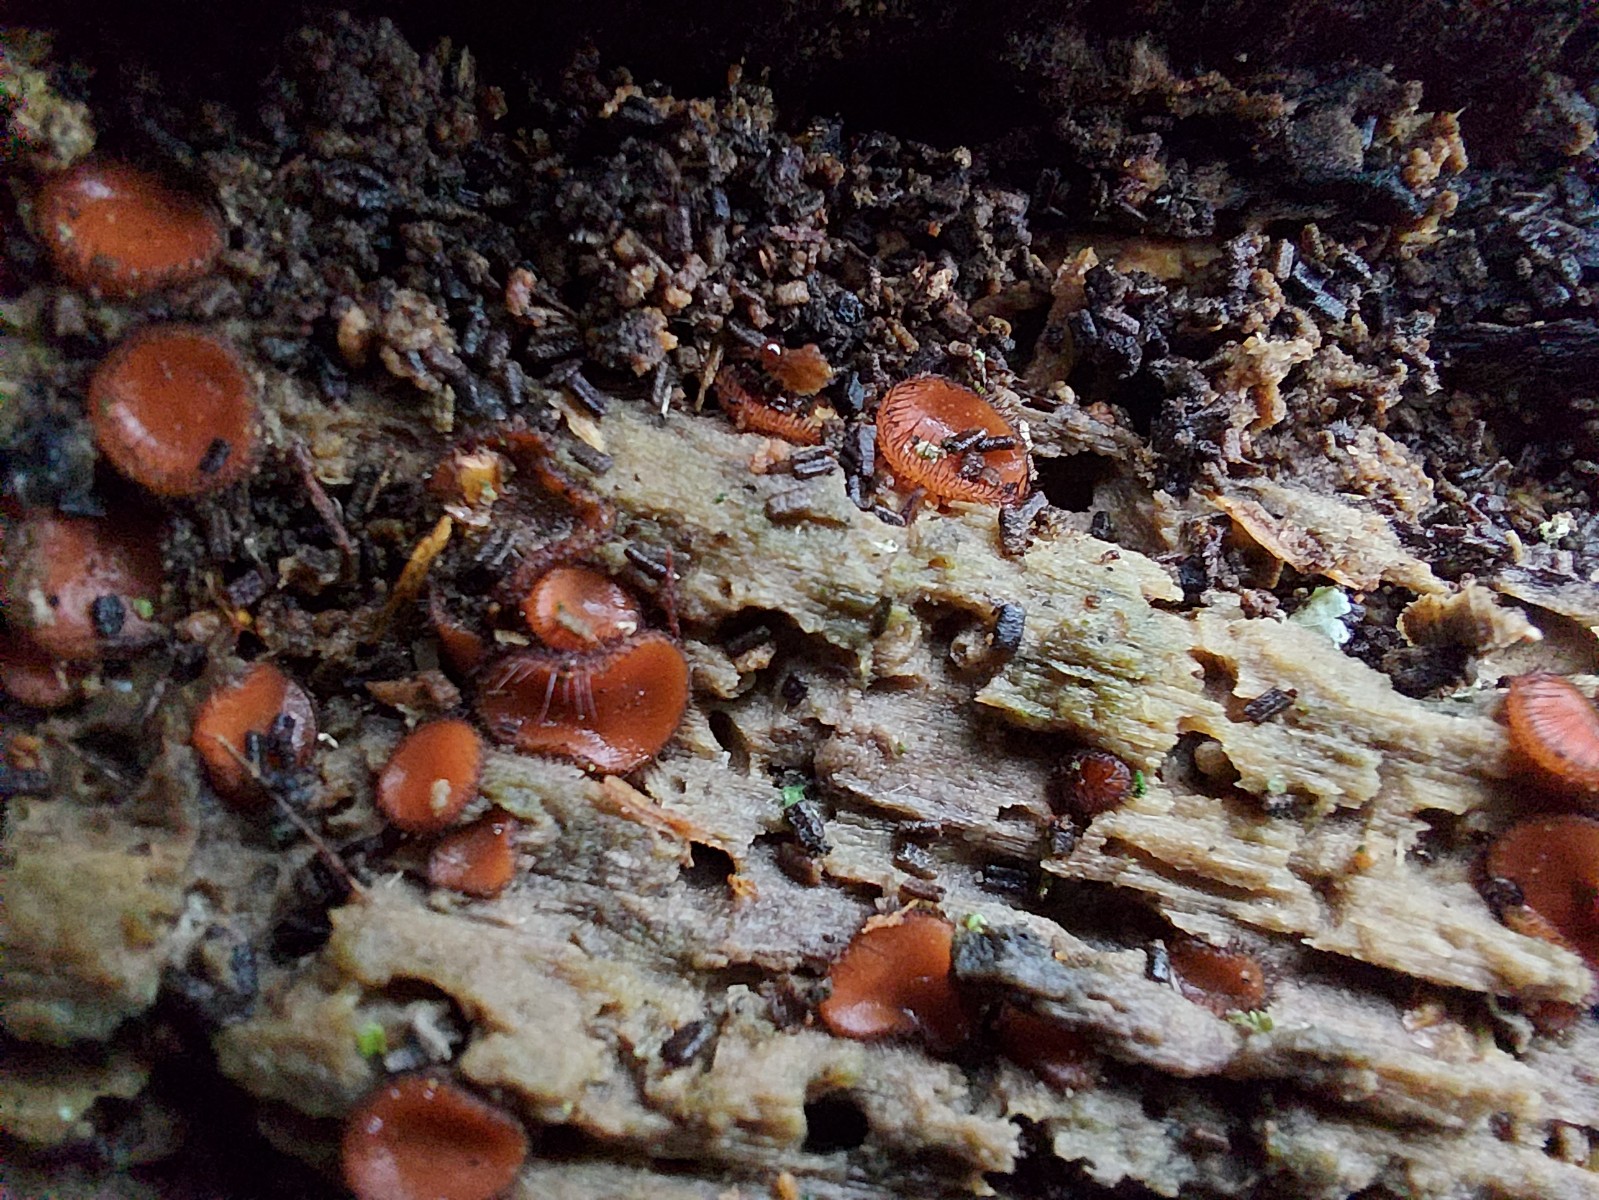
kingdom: Fungi
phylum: Ascomycota
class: Pezizomycetes
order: Pezizales
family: Pyronemataceae
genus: Scutellinia
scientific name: Scutellinia
